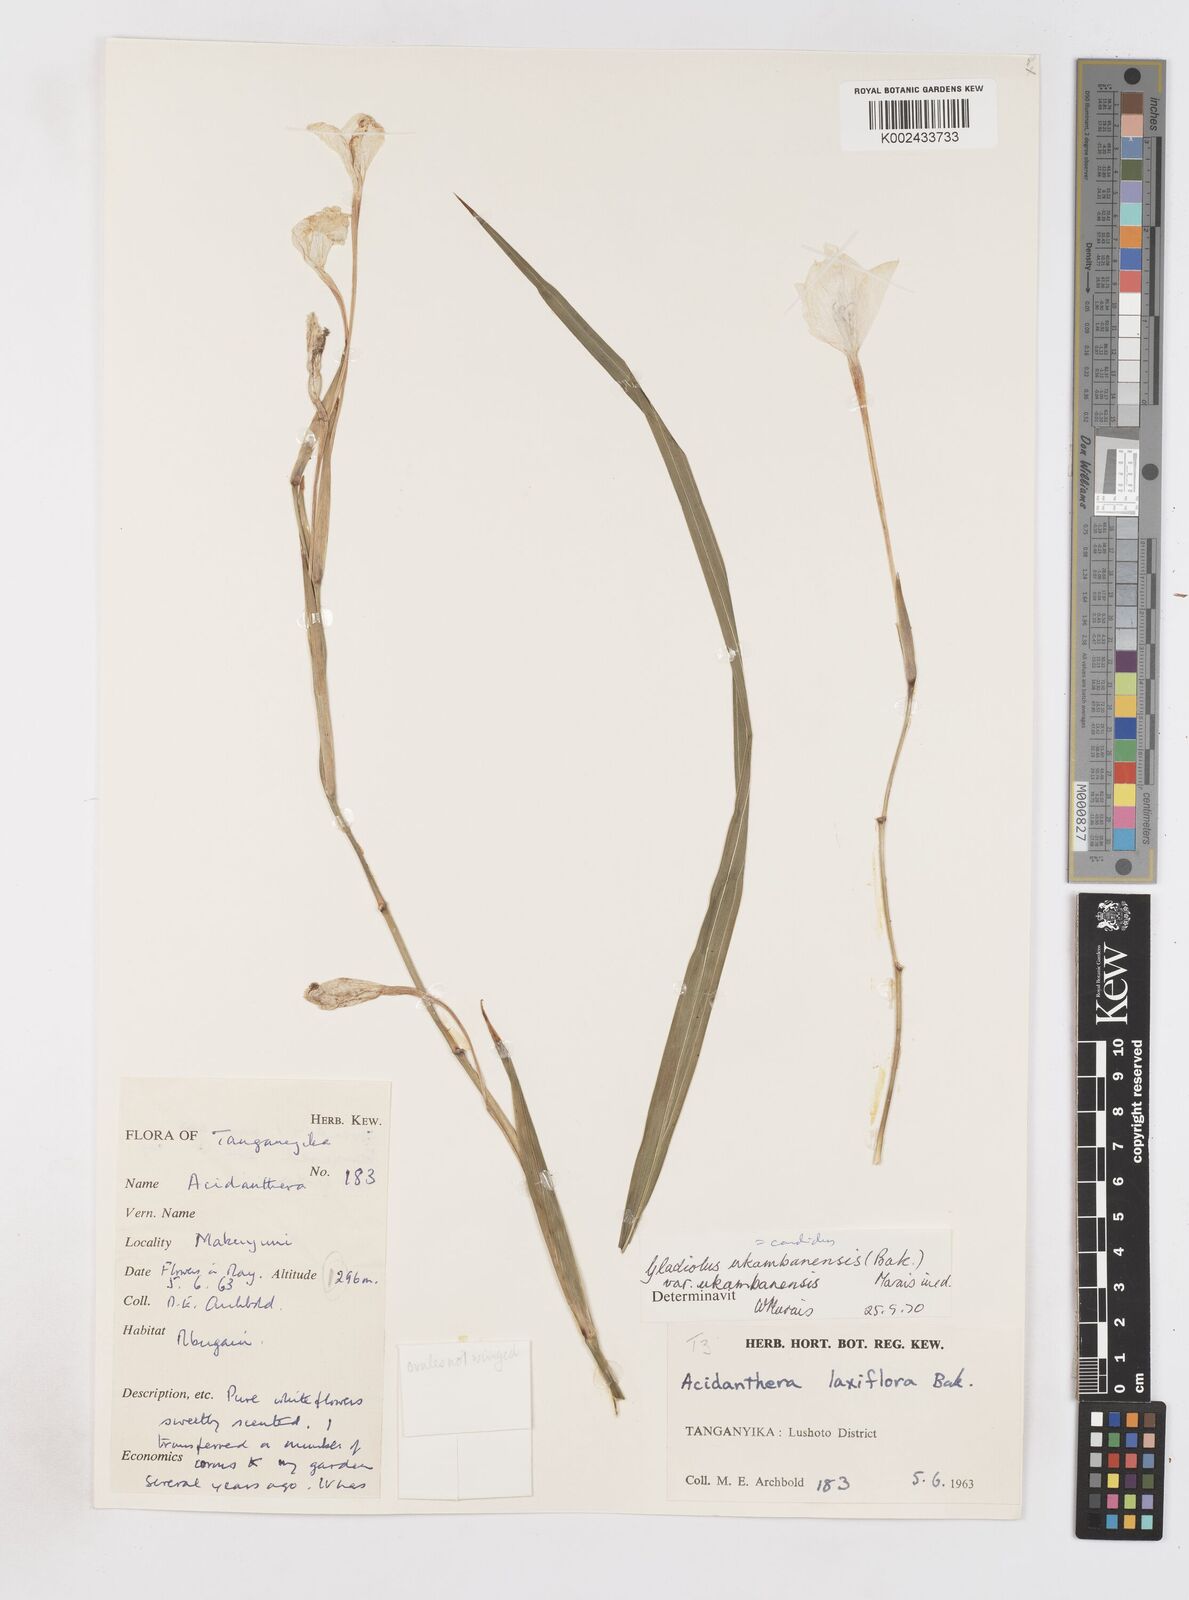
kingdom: Plantae
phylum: Tracheophyta
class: Liliopsida
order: Asparagales
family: Iridaceae
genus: Gladiolus
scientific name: Gladiolus candidus
